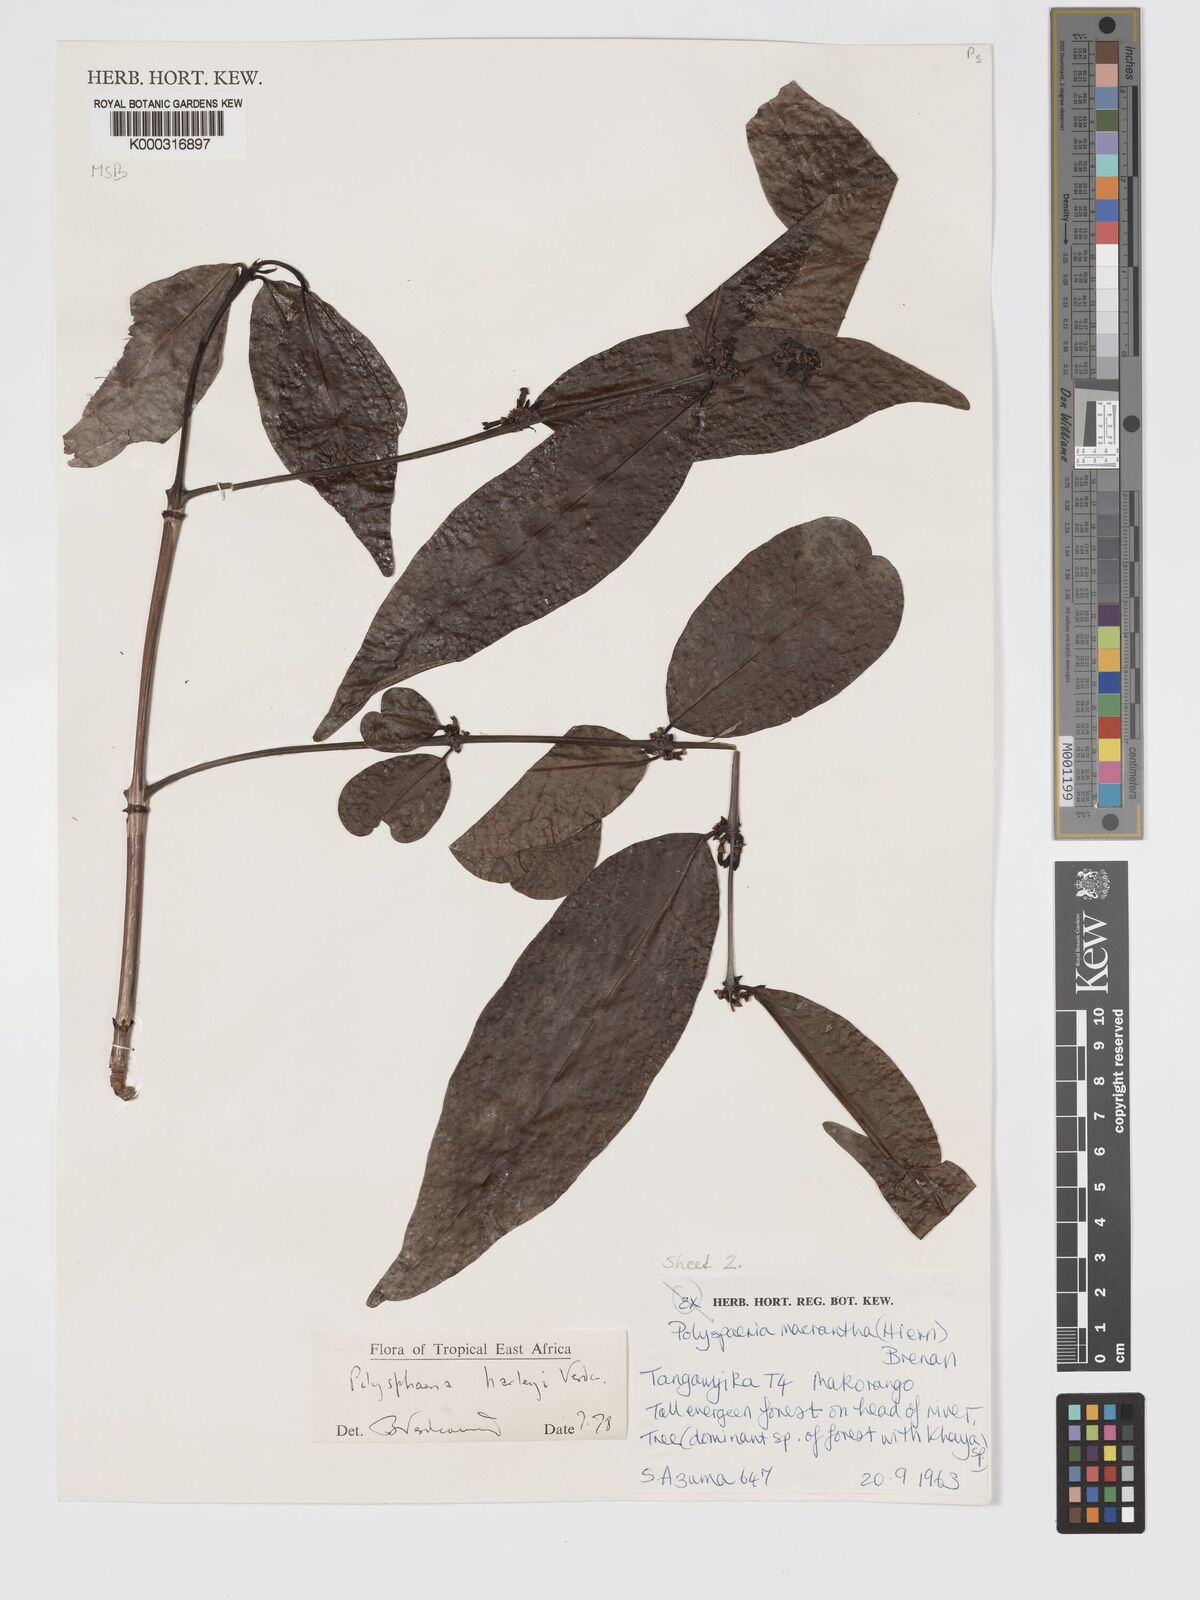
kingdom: Plantae
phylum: Tracheophyta
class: Magnoliopsida
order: Gentianales
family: Rubiaceae
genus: Polysphaeria
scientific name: Polysphaeria lanceolata
